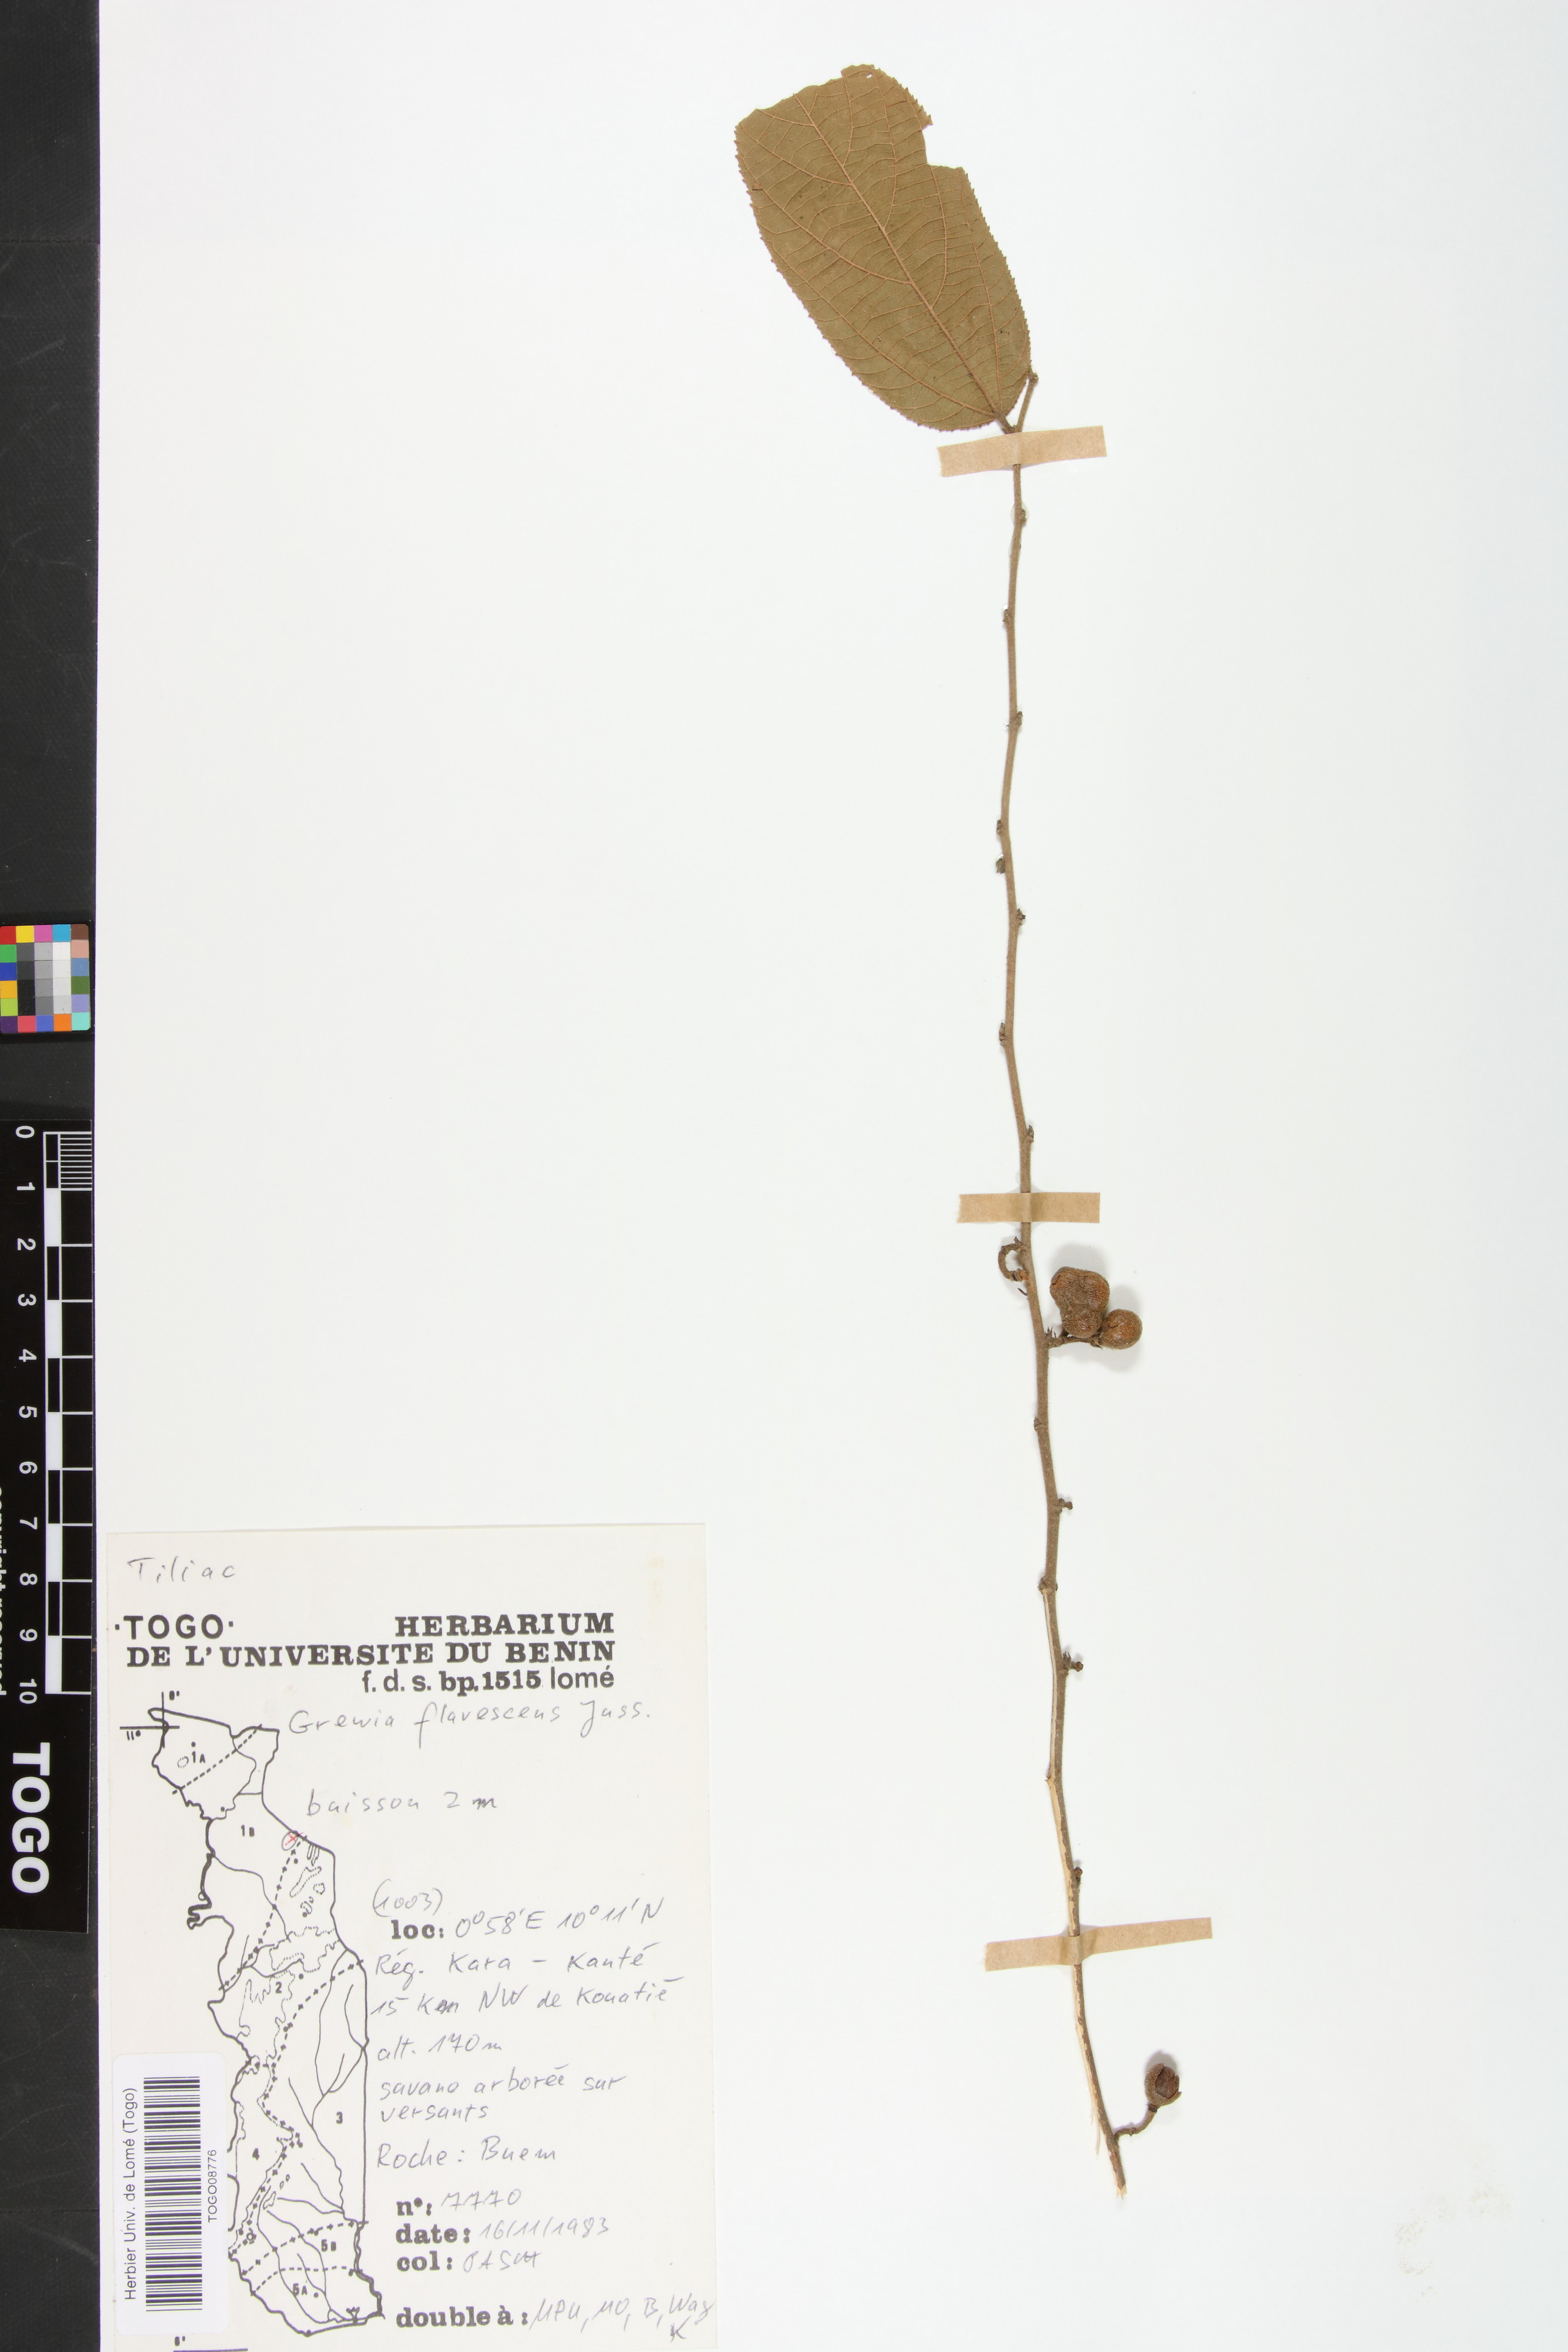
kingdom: Plantae
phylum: Tracheophyta
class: Magnoliopsida
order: Malvales
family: Malvaceae
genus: Grewia
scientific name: Grewia flavescens
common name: Sandpaper raisin
